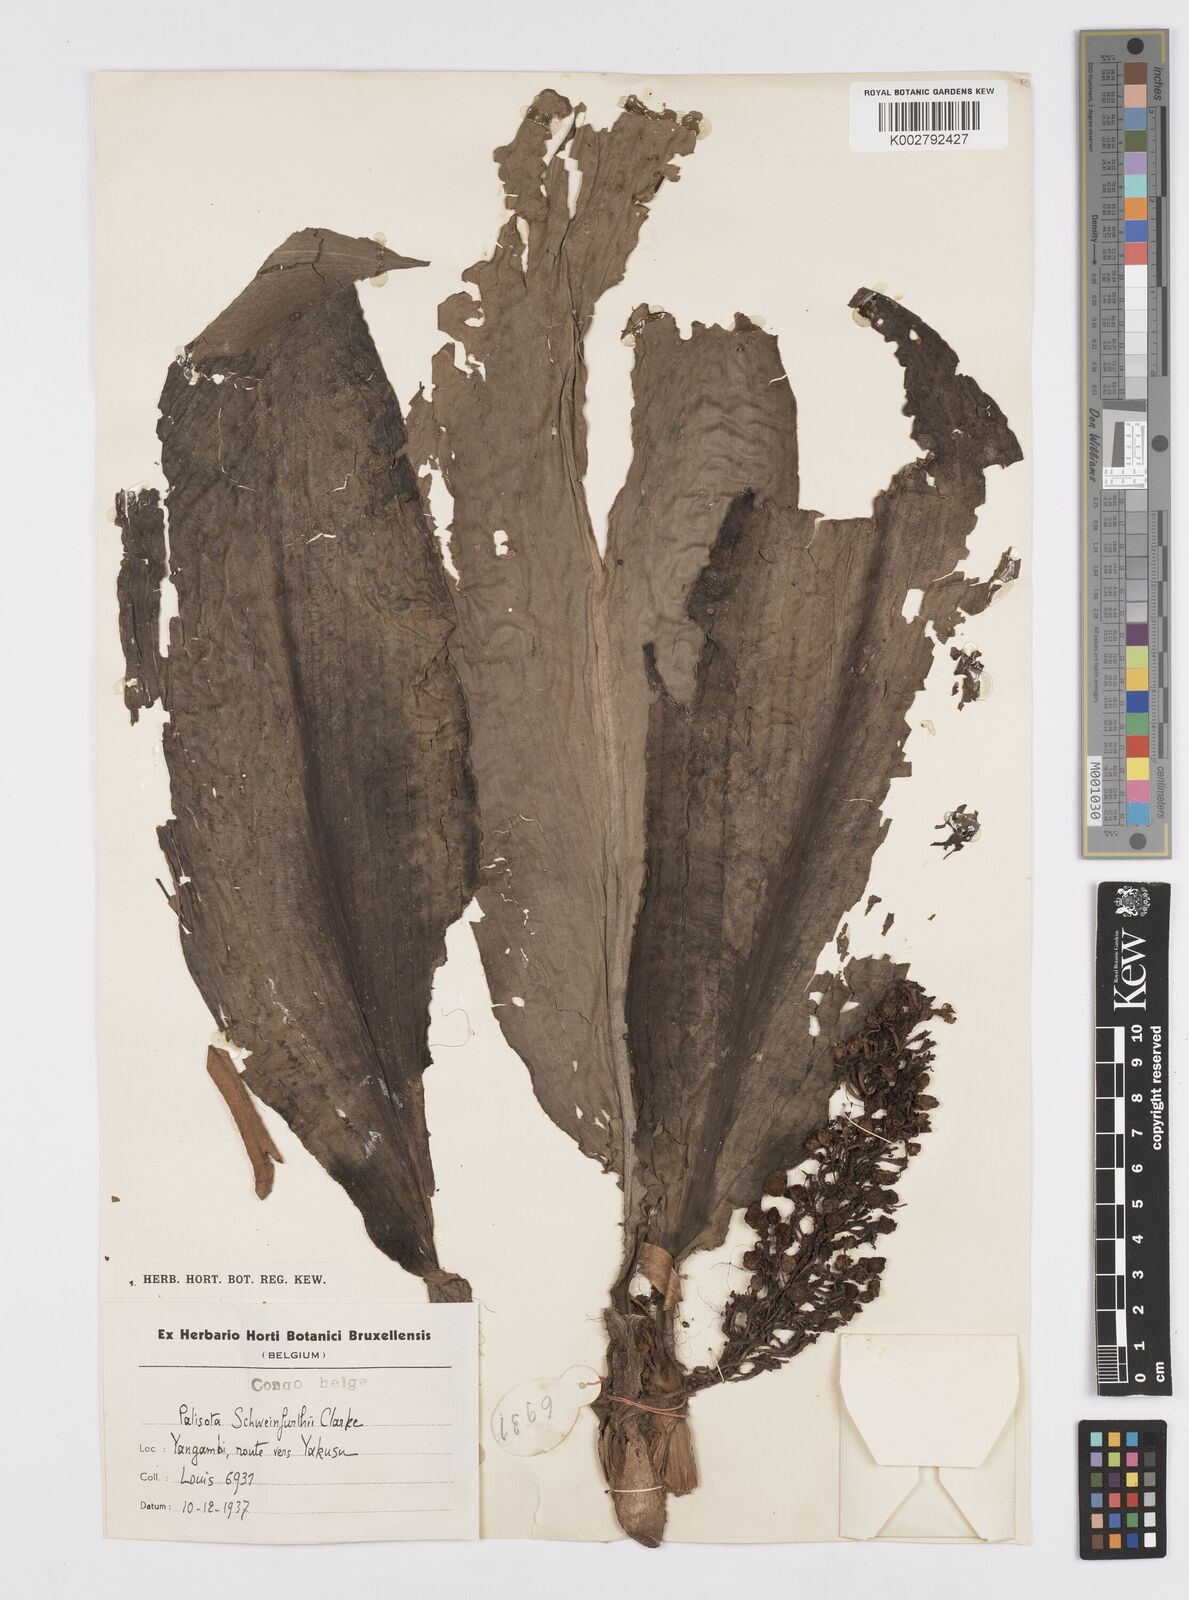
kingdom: Plantae
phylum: Tracheophyta
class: Liliopsida
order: Commelinales
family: Commelinaceae
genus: Palisota
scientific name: Palisota schweinfurthii
